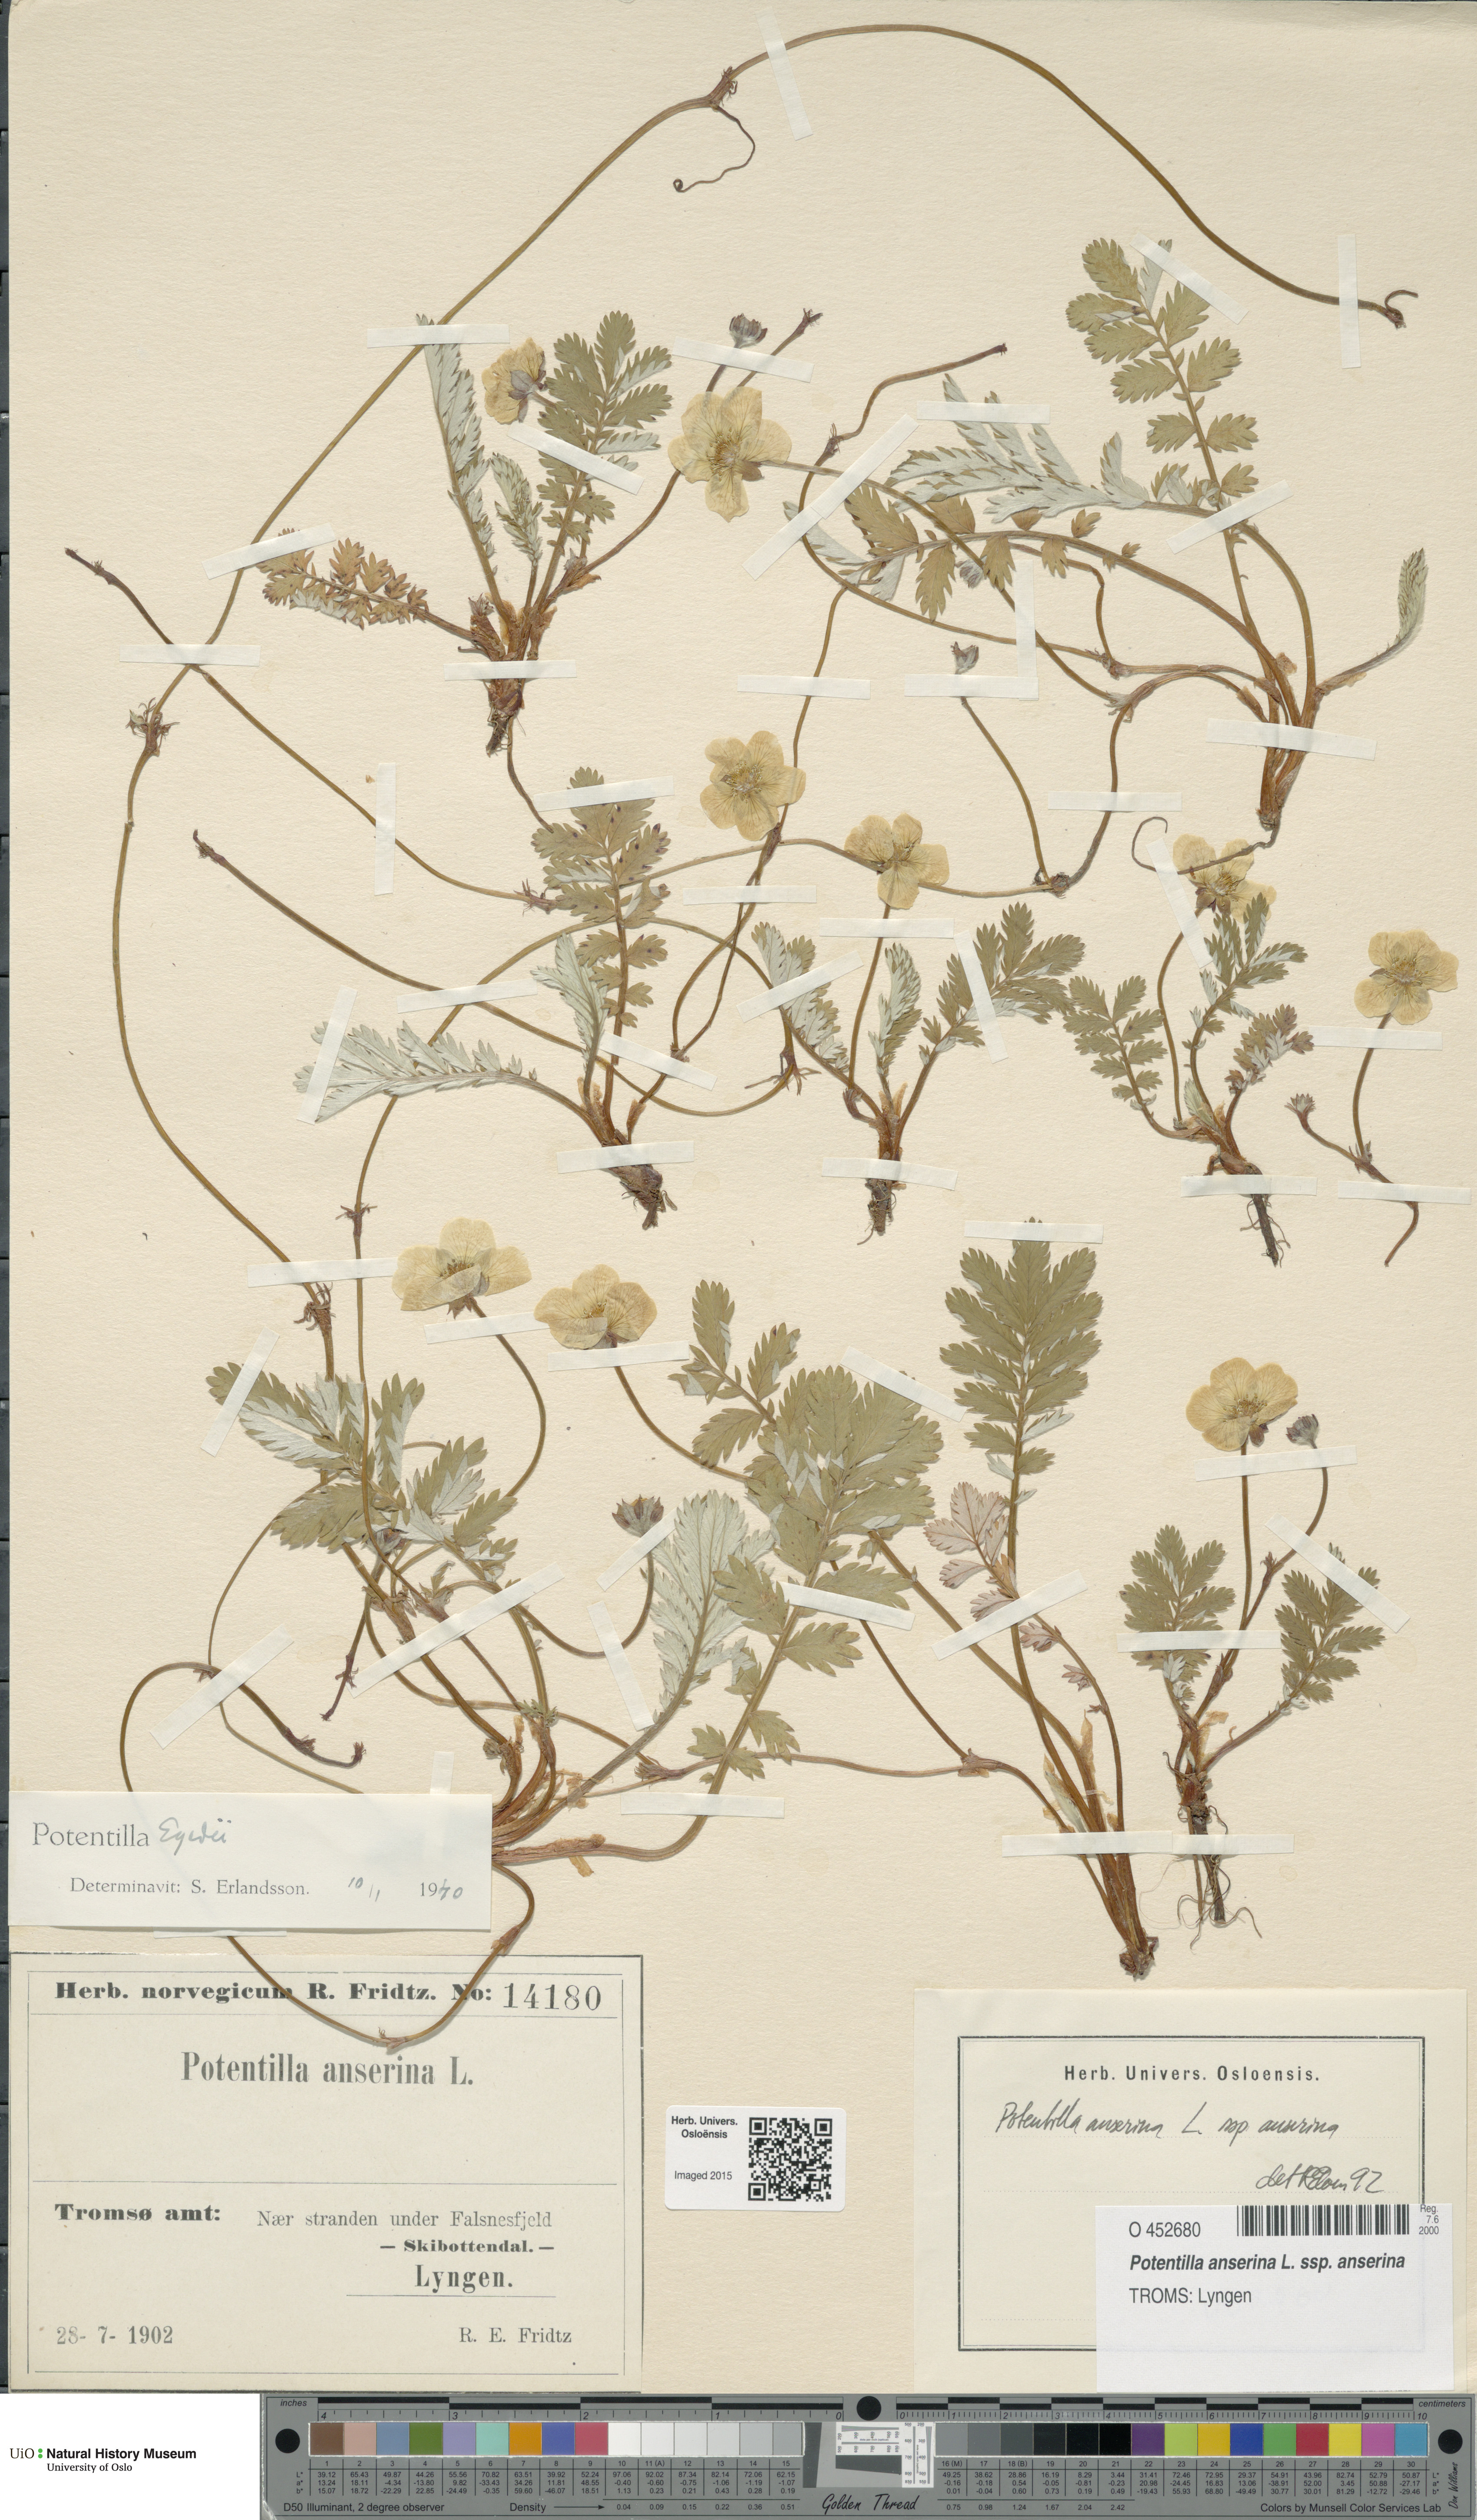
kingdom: Plantae
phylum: Tracheophyta
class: Magnoliopsida
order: Rosales
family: Rosaceae
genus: Argentina
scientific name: Argentina anserina
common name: Common silverweed
